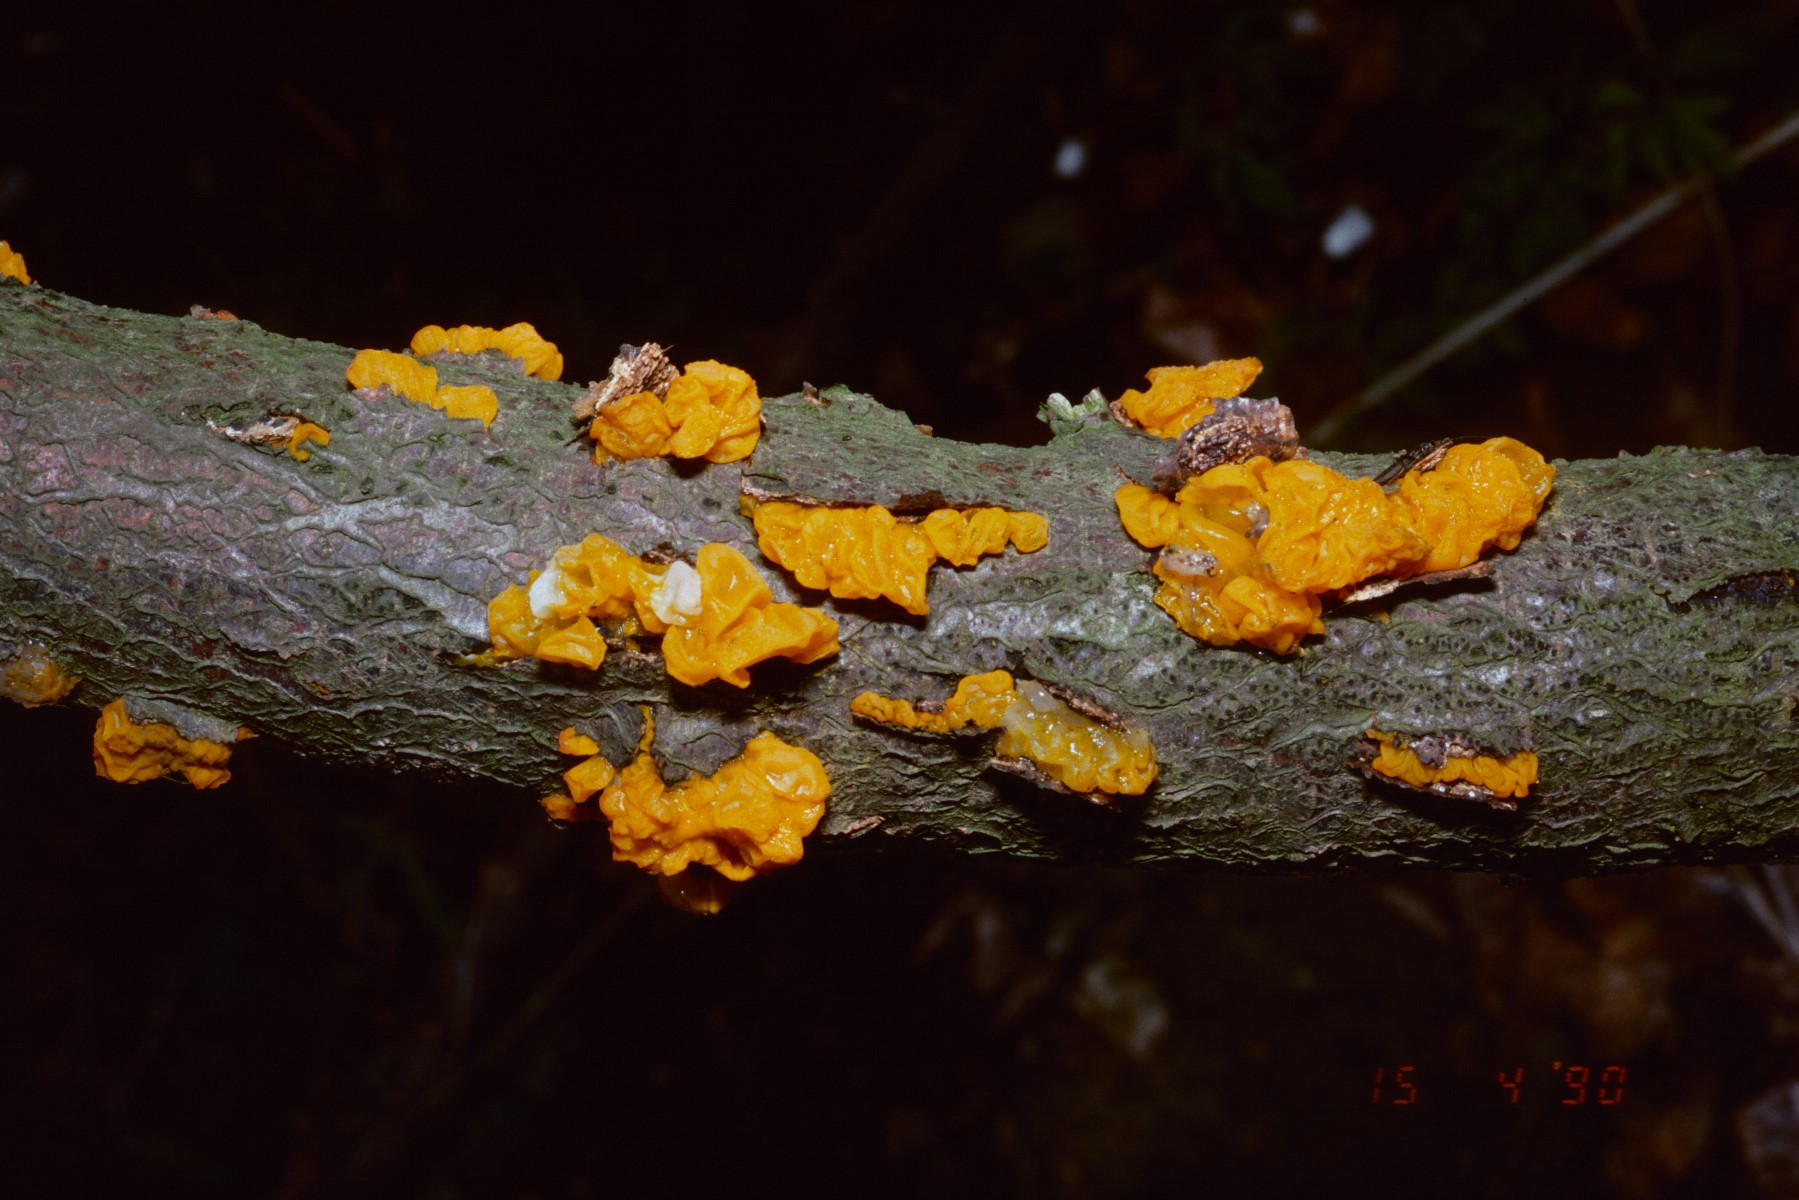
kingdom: Fungi
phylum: Basidiomycota
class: Tremellomycetes
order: Tremellales
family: Tremellaceae
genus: Tremella
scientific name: Tremella mesenterica
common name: gul bævresvamp
